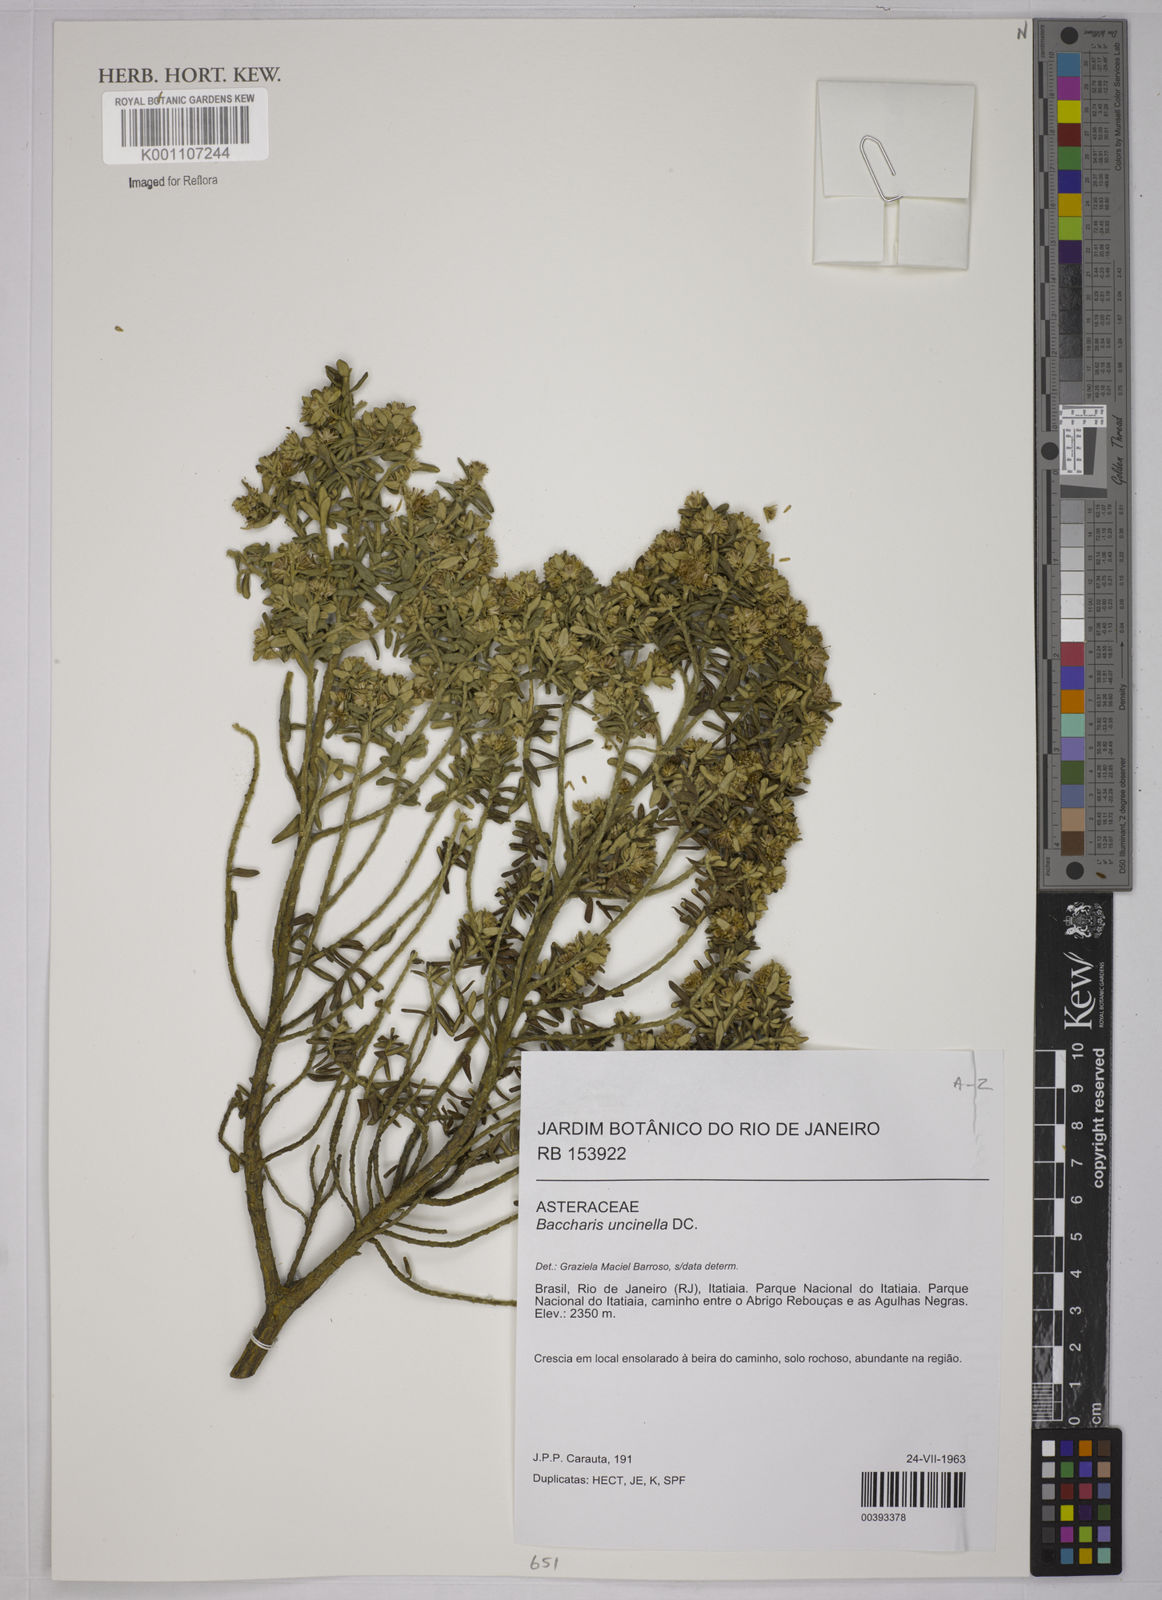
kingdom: Plantae
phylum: Tracheophyta
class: Magnoliopsida
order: Asterales
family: Asteraceae
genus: Baccharis
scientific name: Baccharis uncinella
